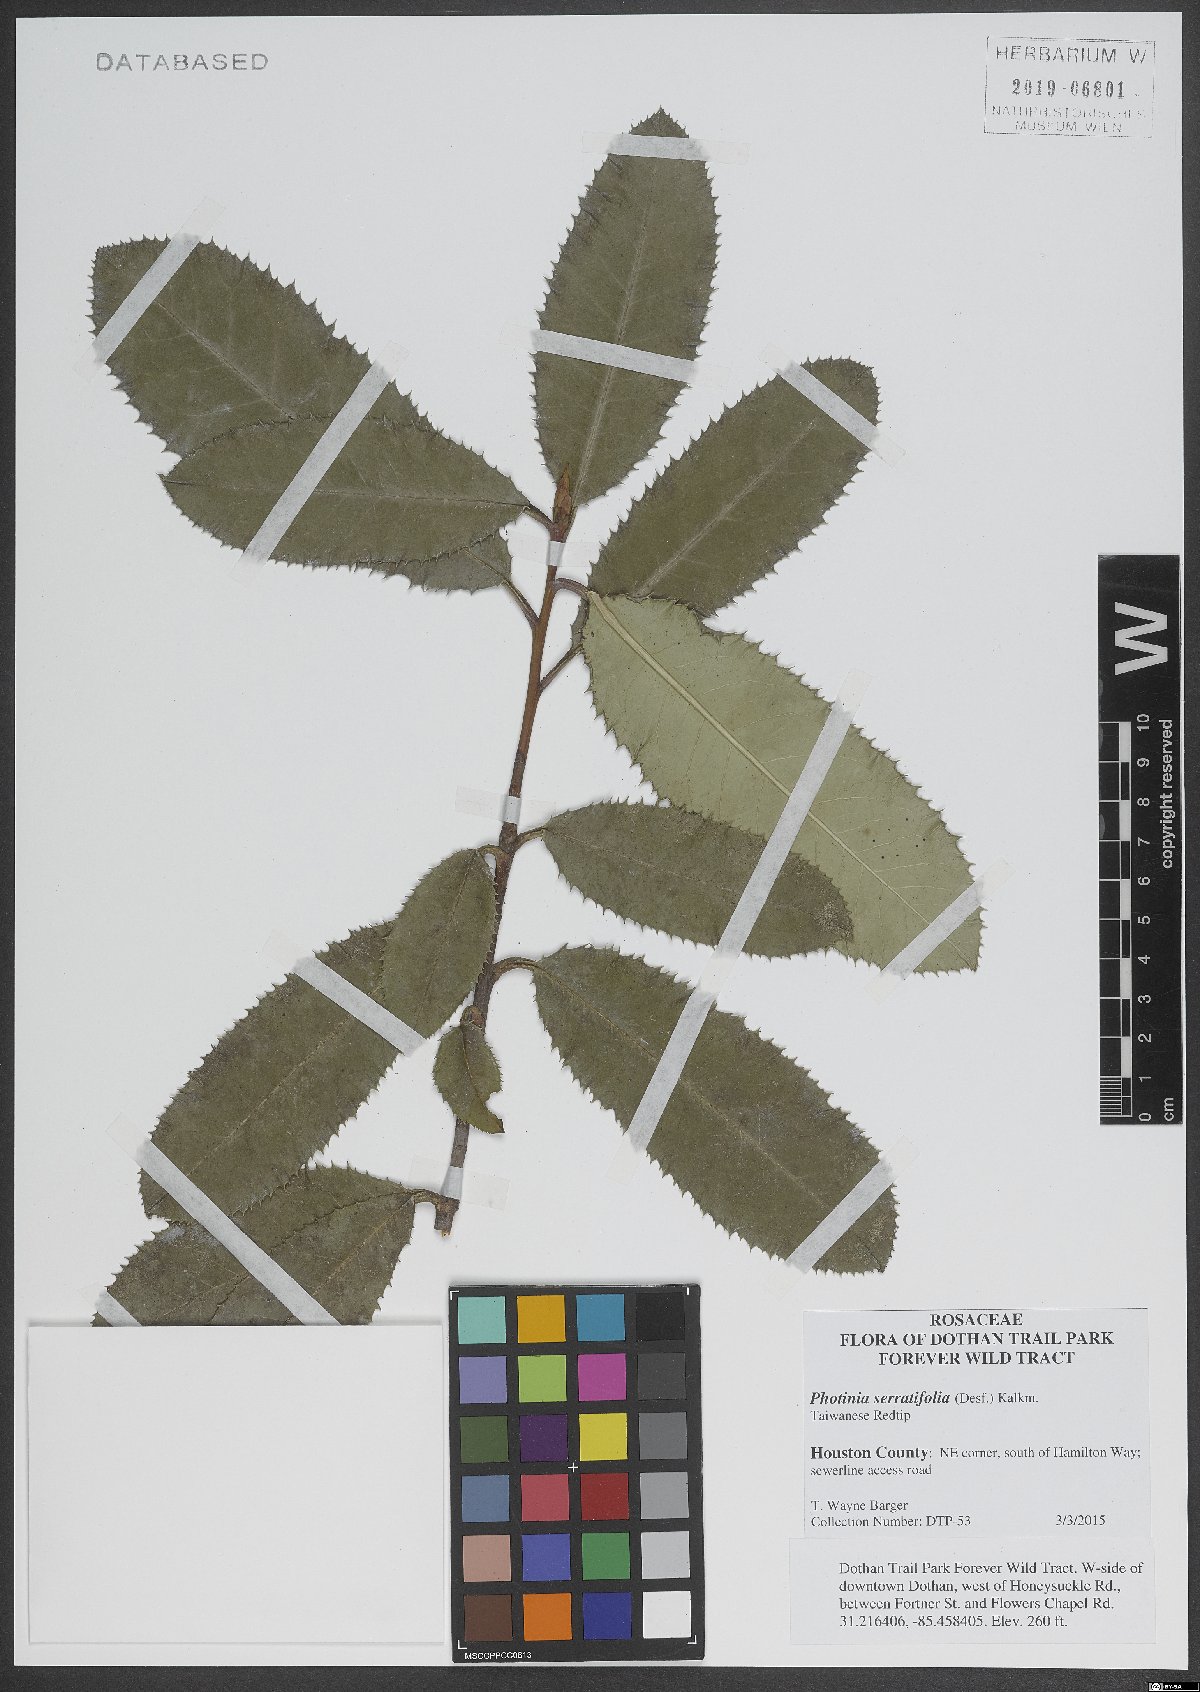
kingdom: Plantae
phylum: Tracheophyta
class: Magnoliopsida
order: Rosales
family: Rosaceae
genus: Photinia
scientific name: Photinia serratifolia
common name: Taiwanese photinia
